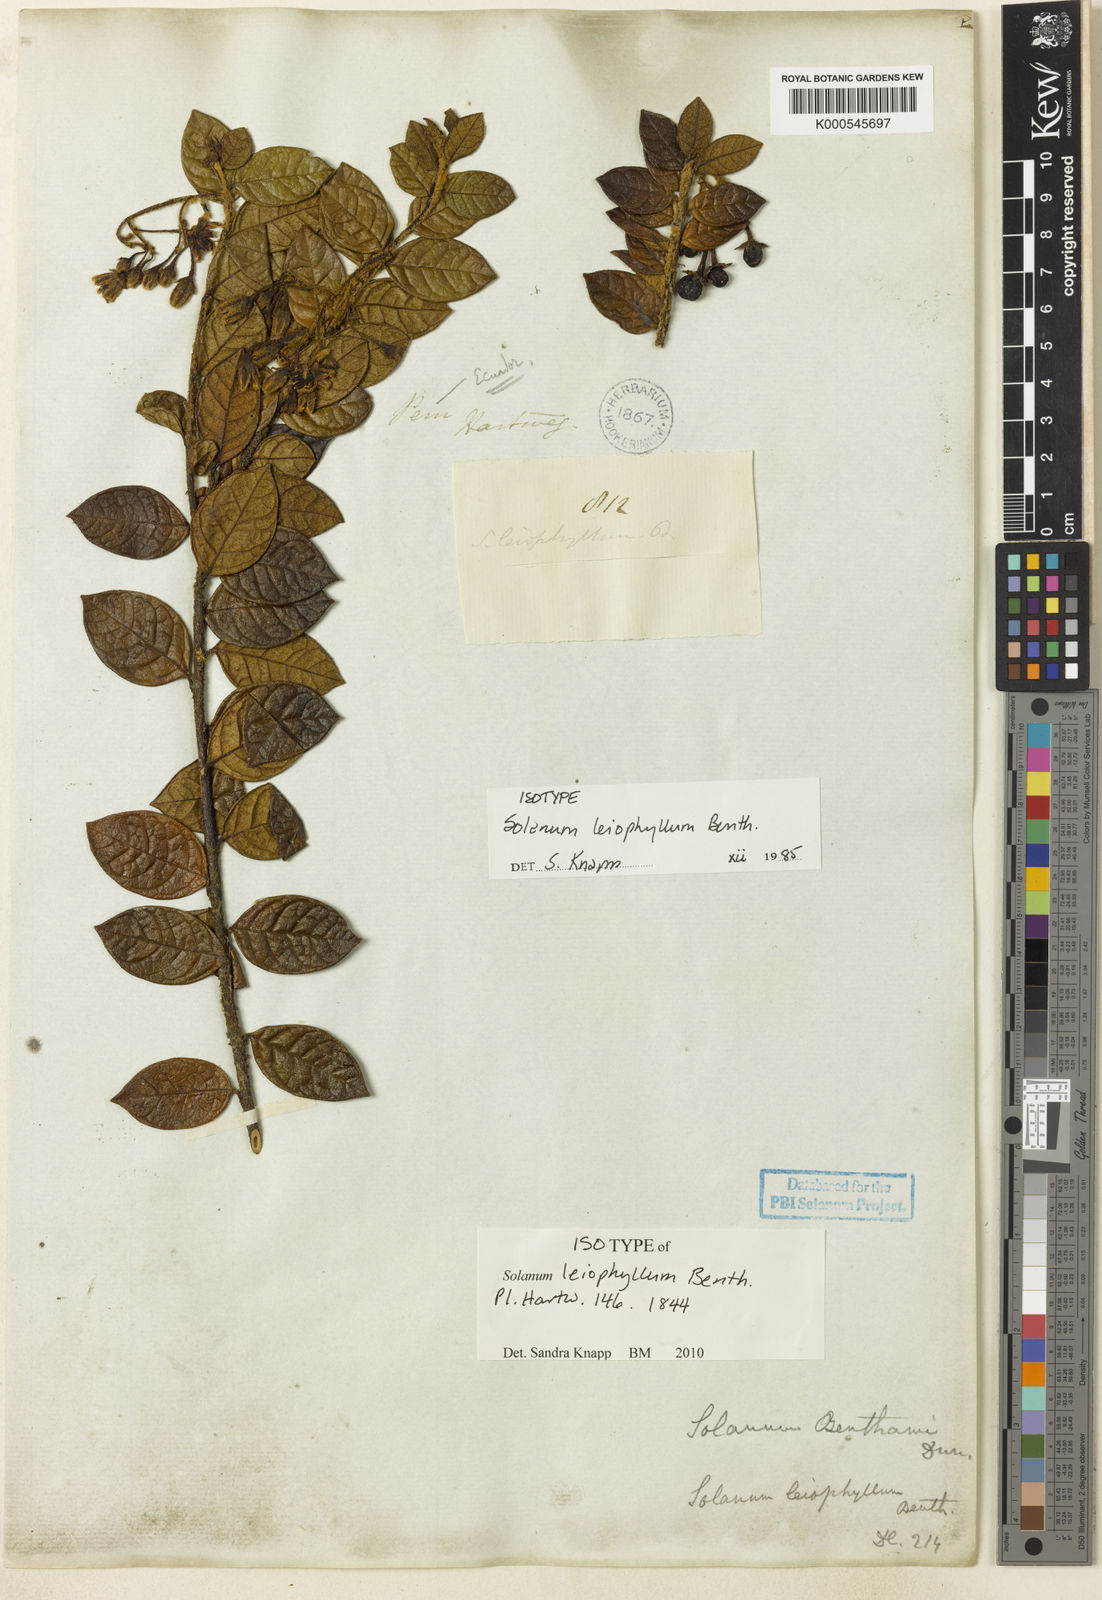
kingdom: Plantae
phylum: Tracheophyta
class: Magnoliopsida
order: Solanales
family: Solanaceae
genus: Solanum
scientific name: Solanum leiophyllum
